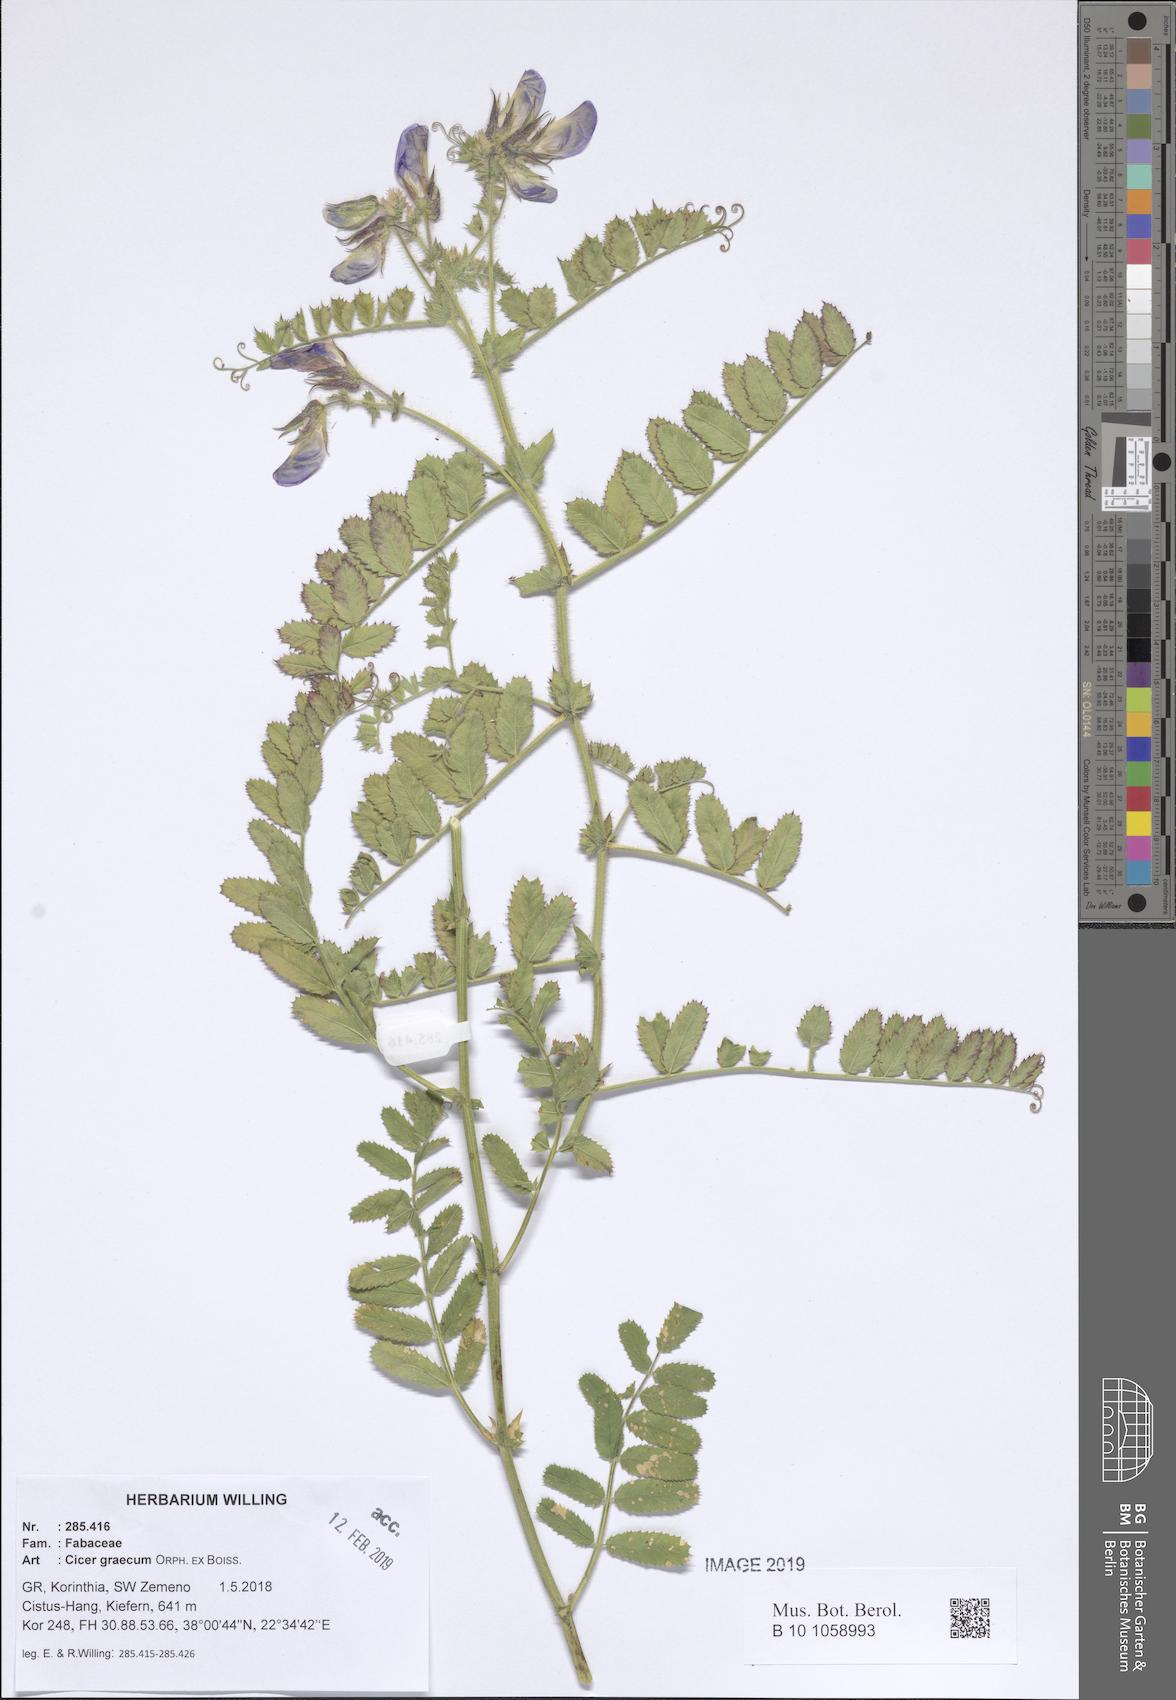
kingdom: Plantae
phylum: Tracheophyta
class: Magnoliopsida
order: Fabales
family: Fabaceae
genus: Cicer
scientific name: Cicer graecum
